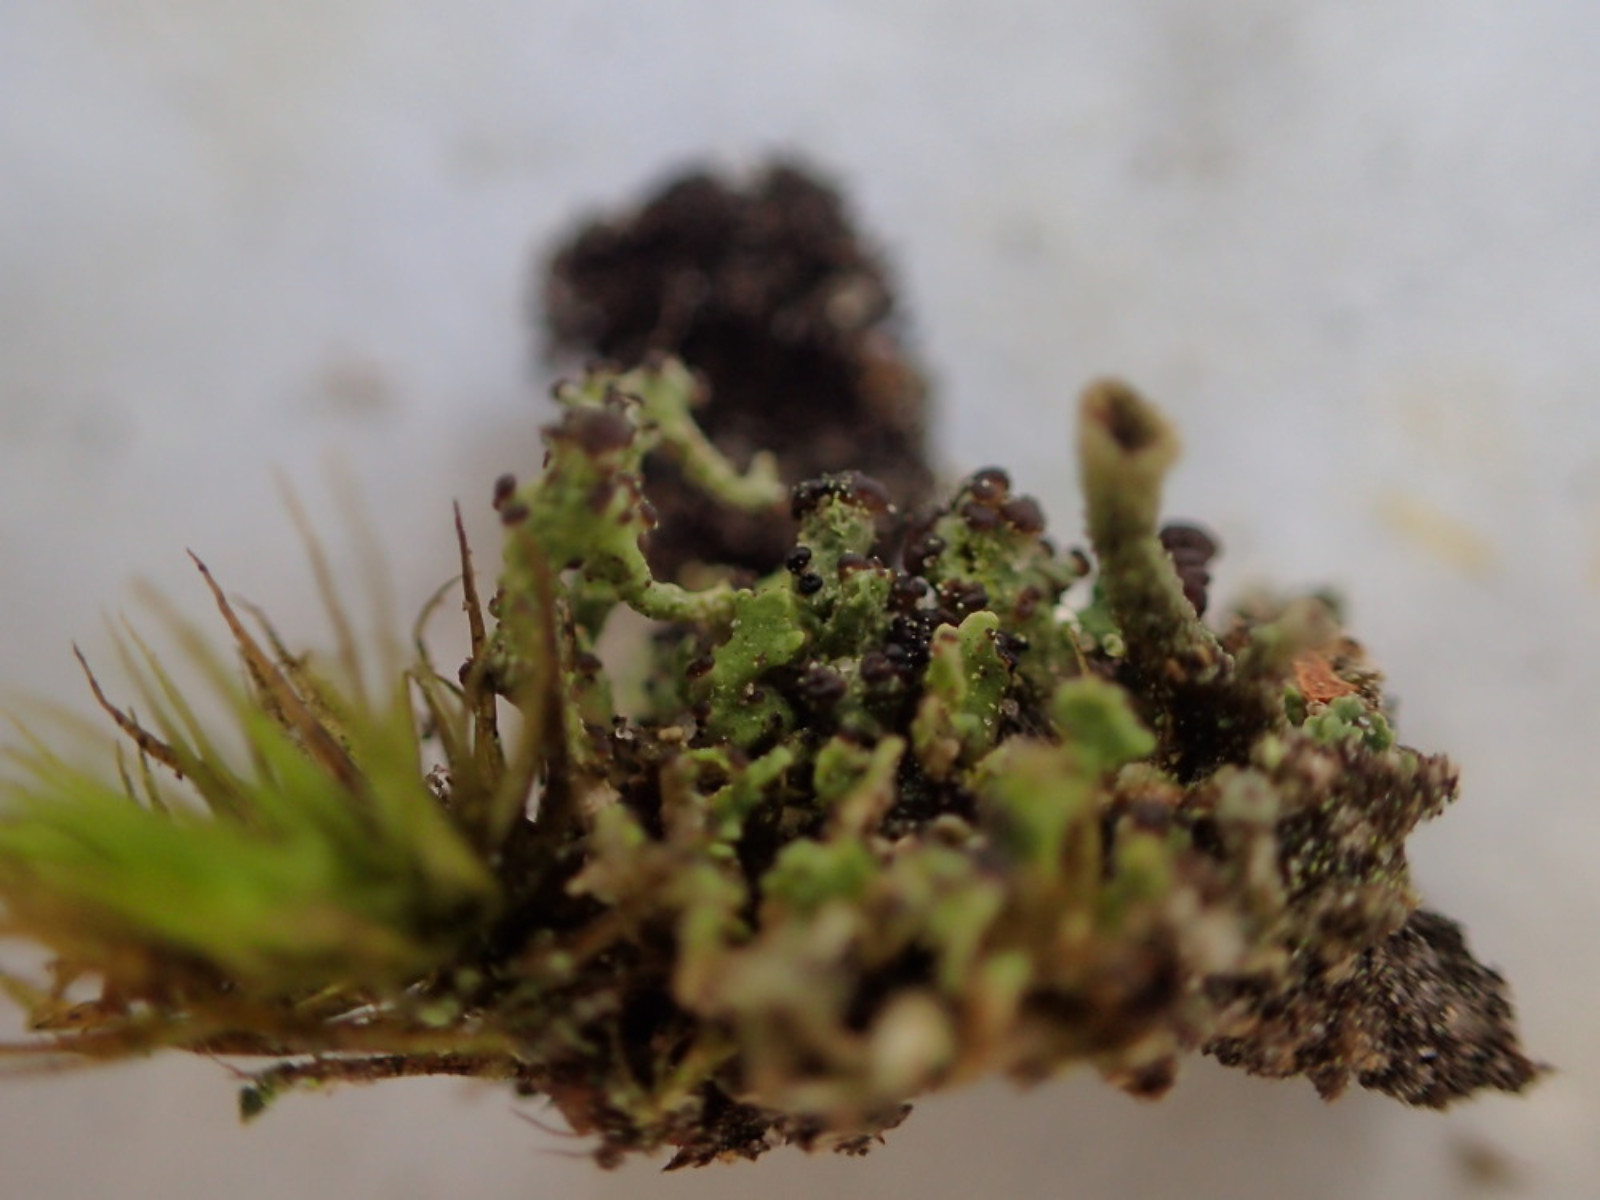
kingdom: Fungi
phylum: Ascomycota
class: Lecanoromycetes
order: Lecanorales
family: Cladoniaceae
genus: Cladonia
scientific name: Cladonia
